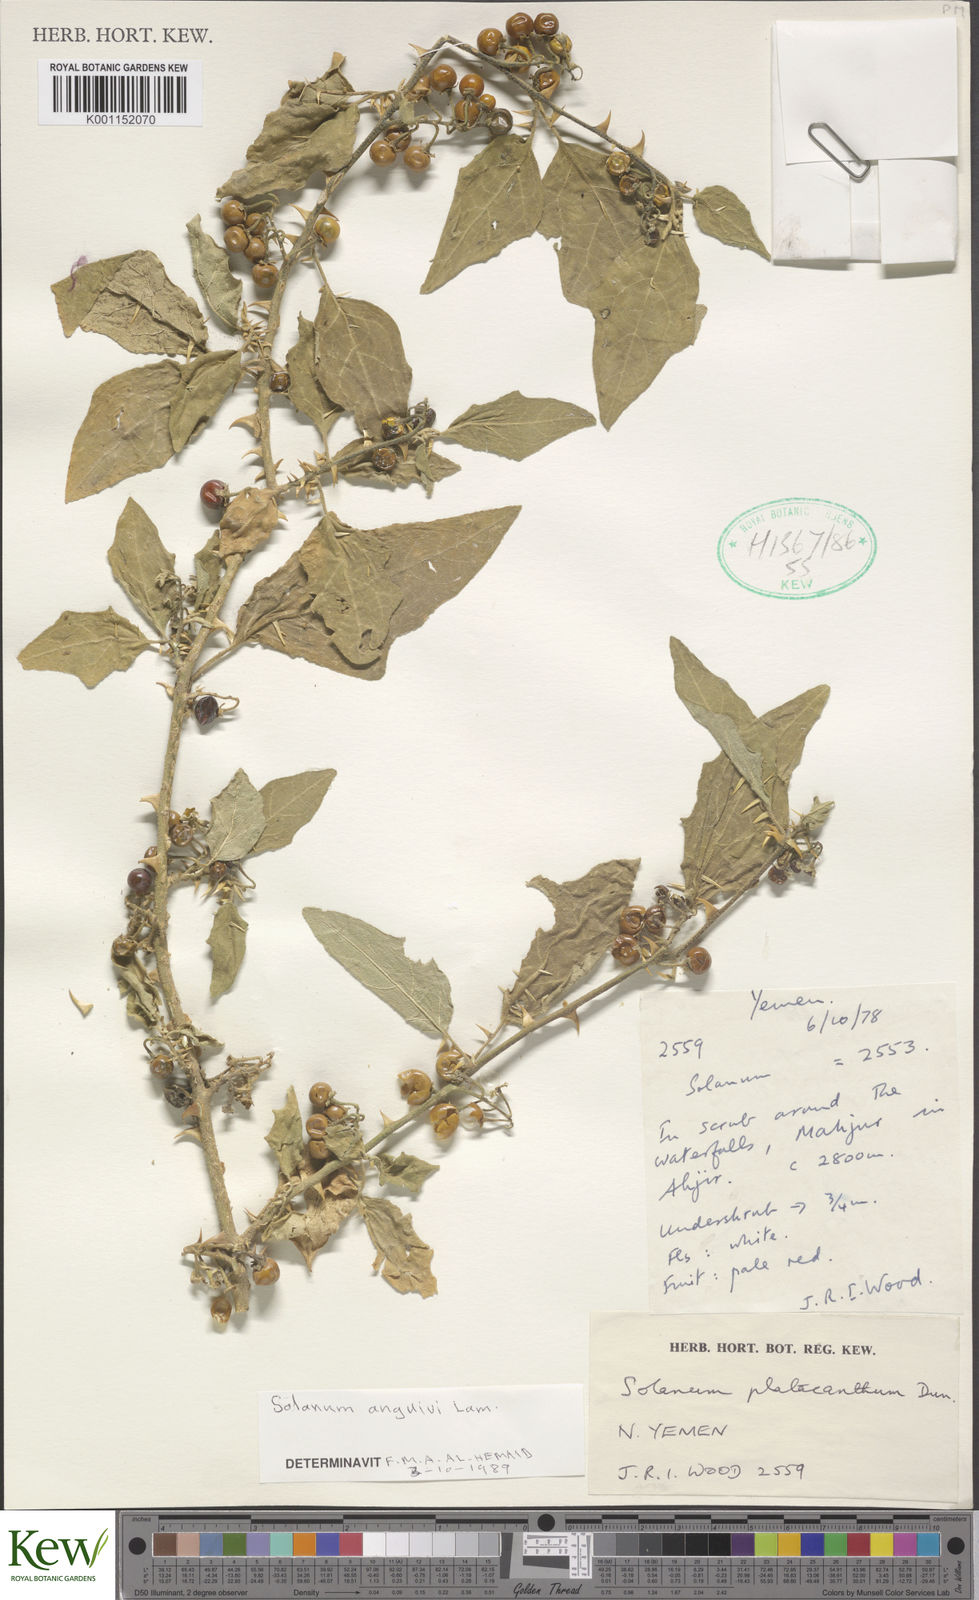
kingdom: Plantae
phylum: Tracheophyta
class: Magnoliopsida
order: Solanales
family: Solanaceae
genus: Solanum
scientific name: Solanum anguivi
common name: Forest bitterberry
